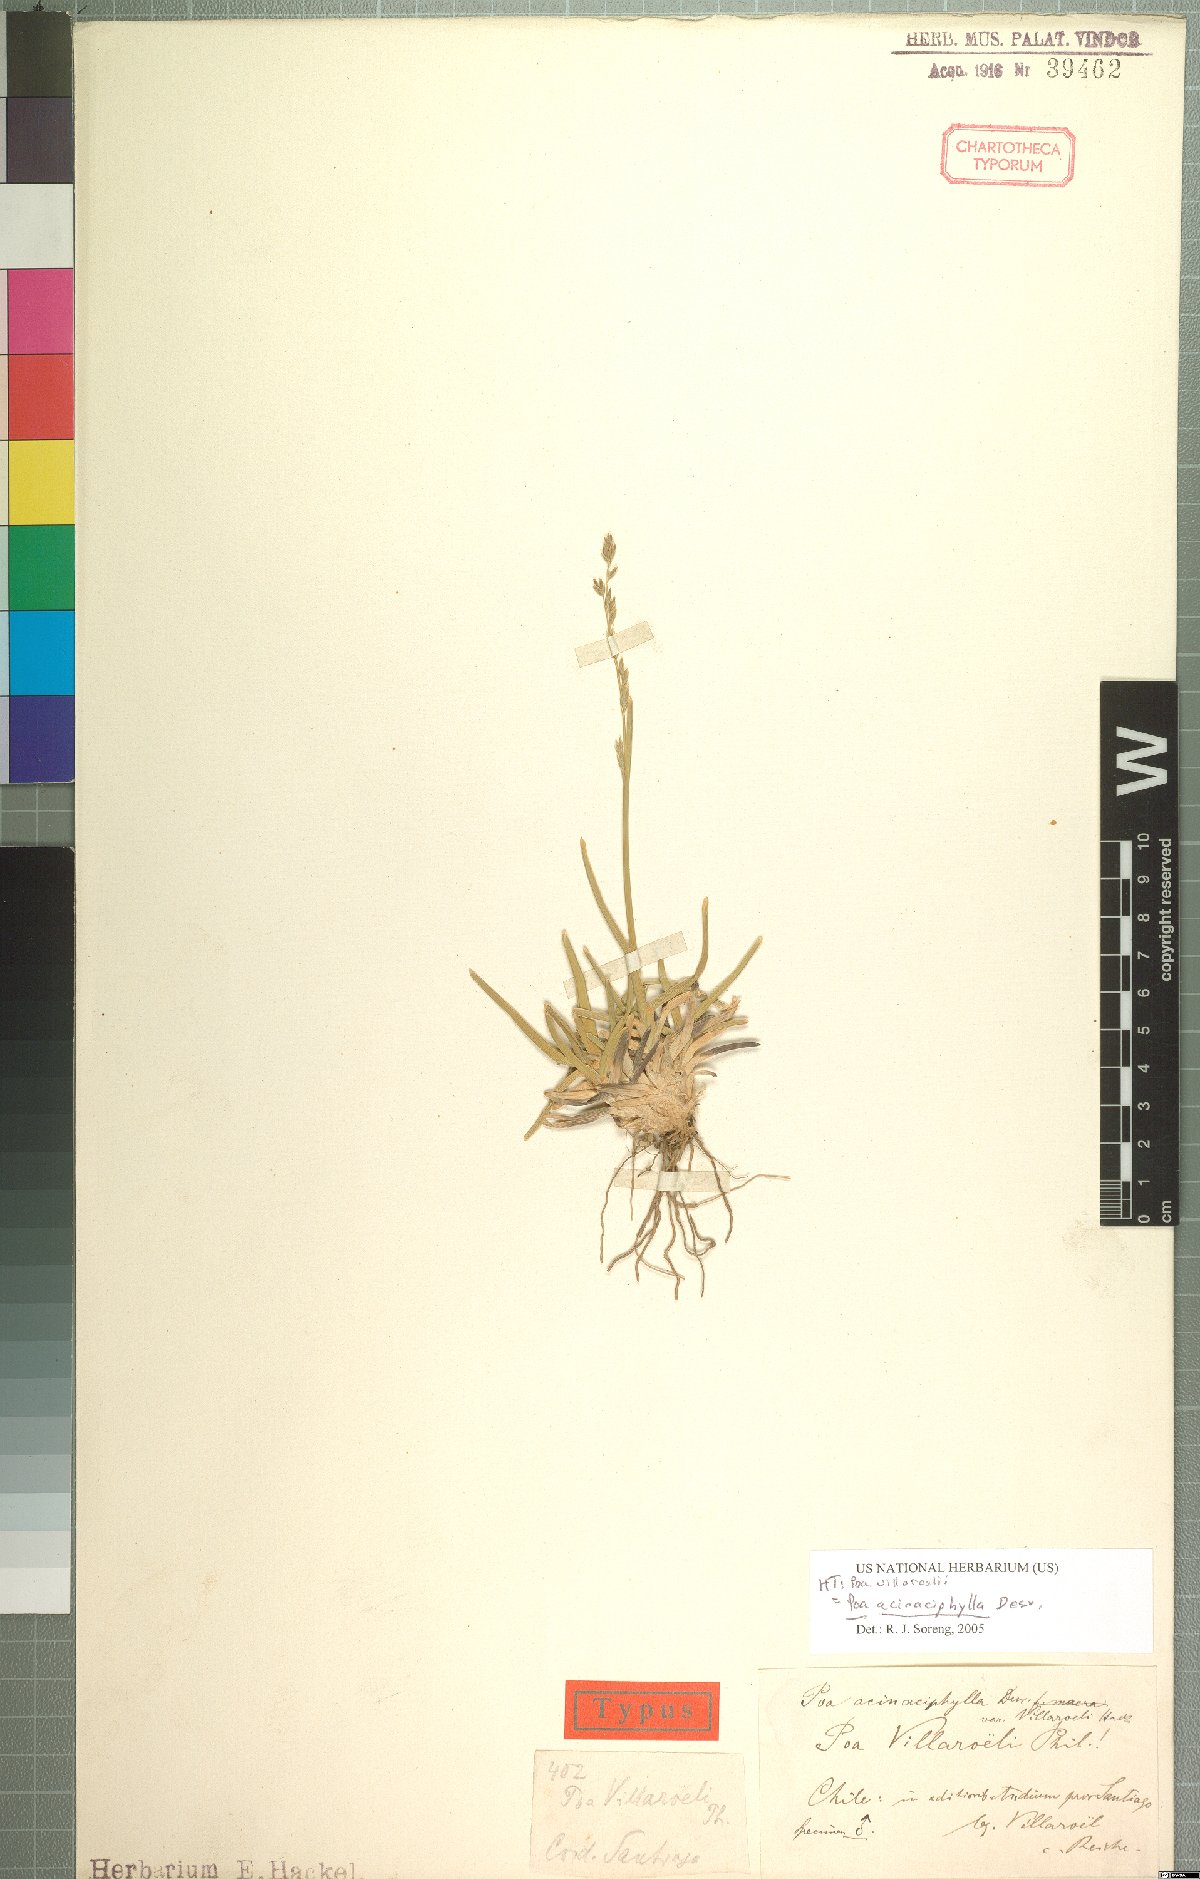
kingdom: Plantae
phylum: Tracheophyta
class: Liliopsida
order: Poales
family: Poaceae
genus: Poa
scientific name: Poa acinaciphylla
